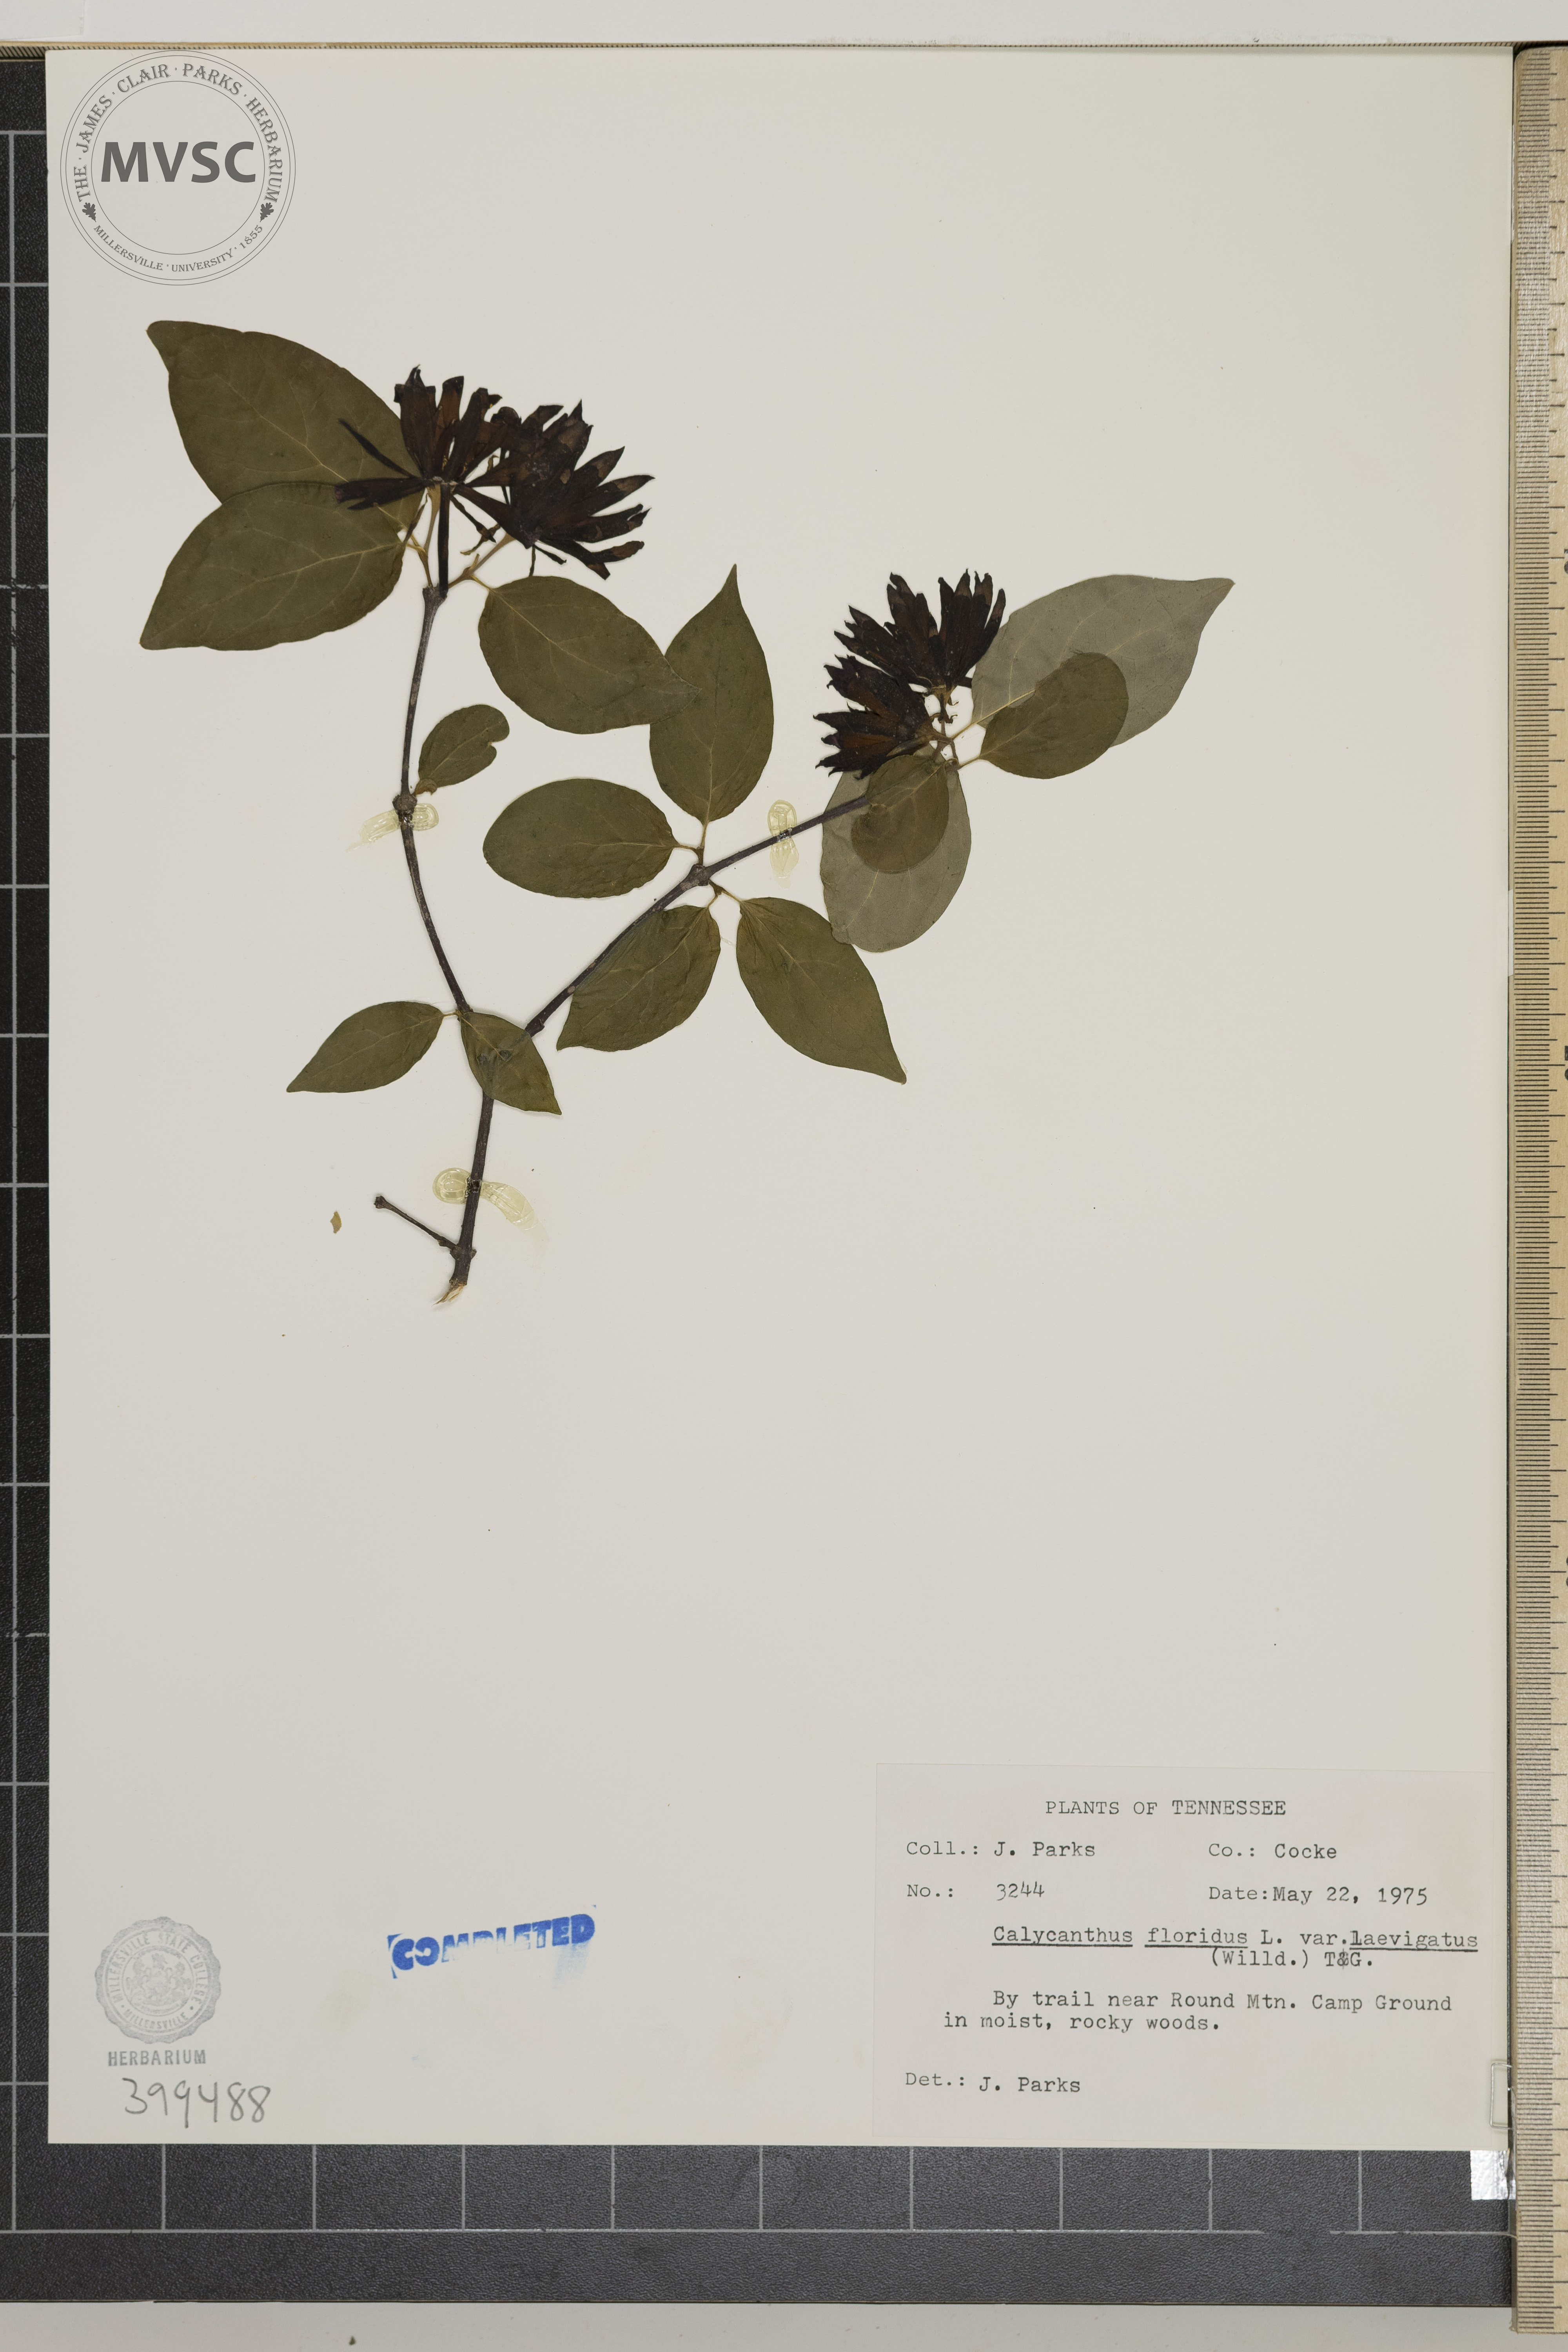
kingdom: Plantae
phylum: Tracheophyta
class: Magnoliopsida
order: Laurales
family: Calycanthaceae
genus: Calycanthus
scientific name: Calycanthus floridus
